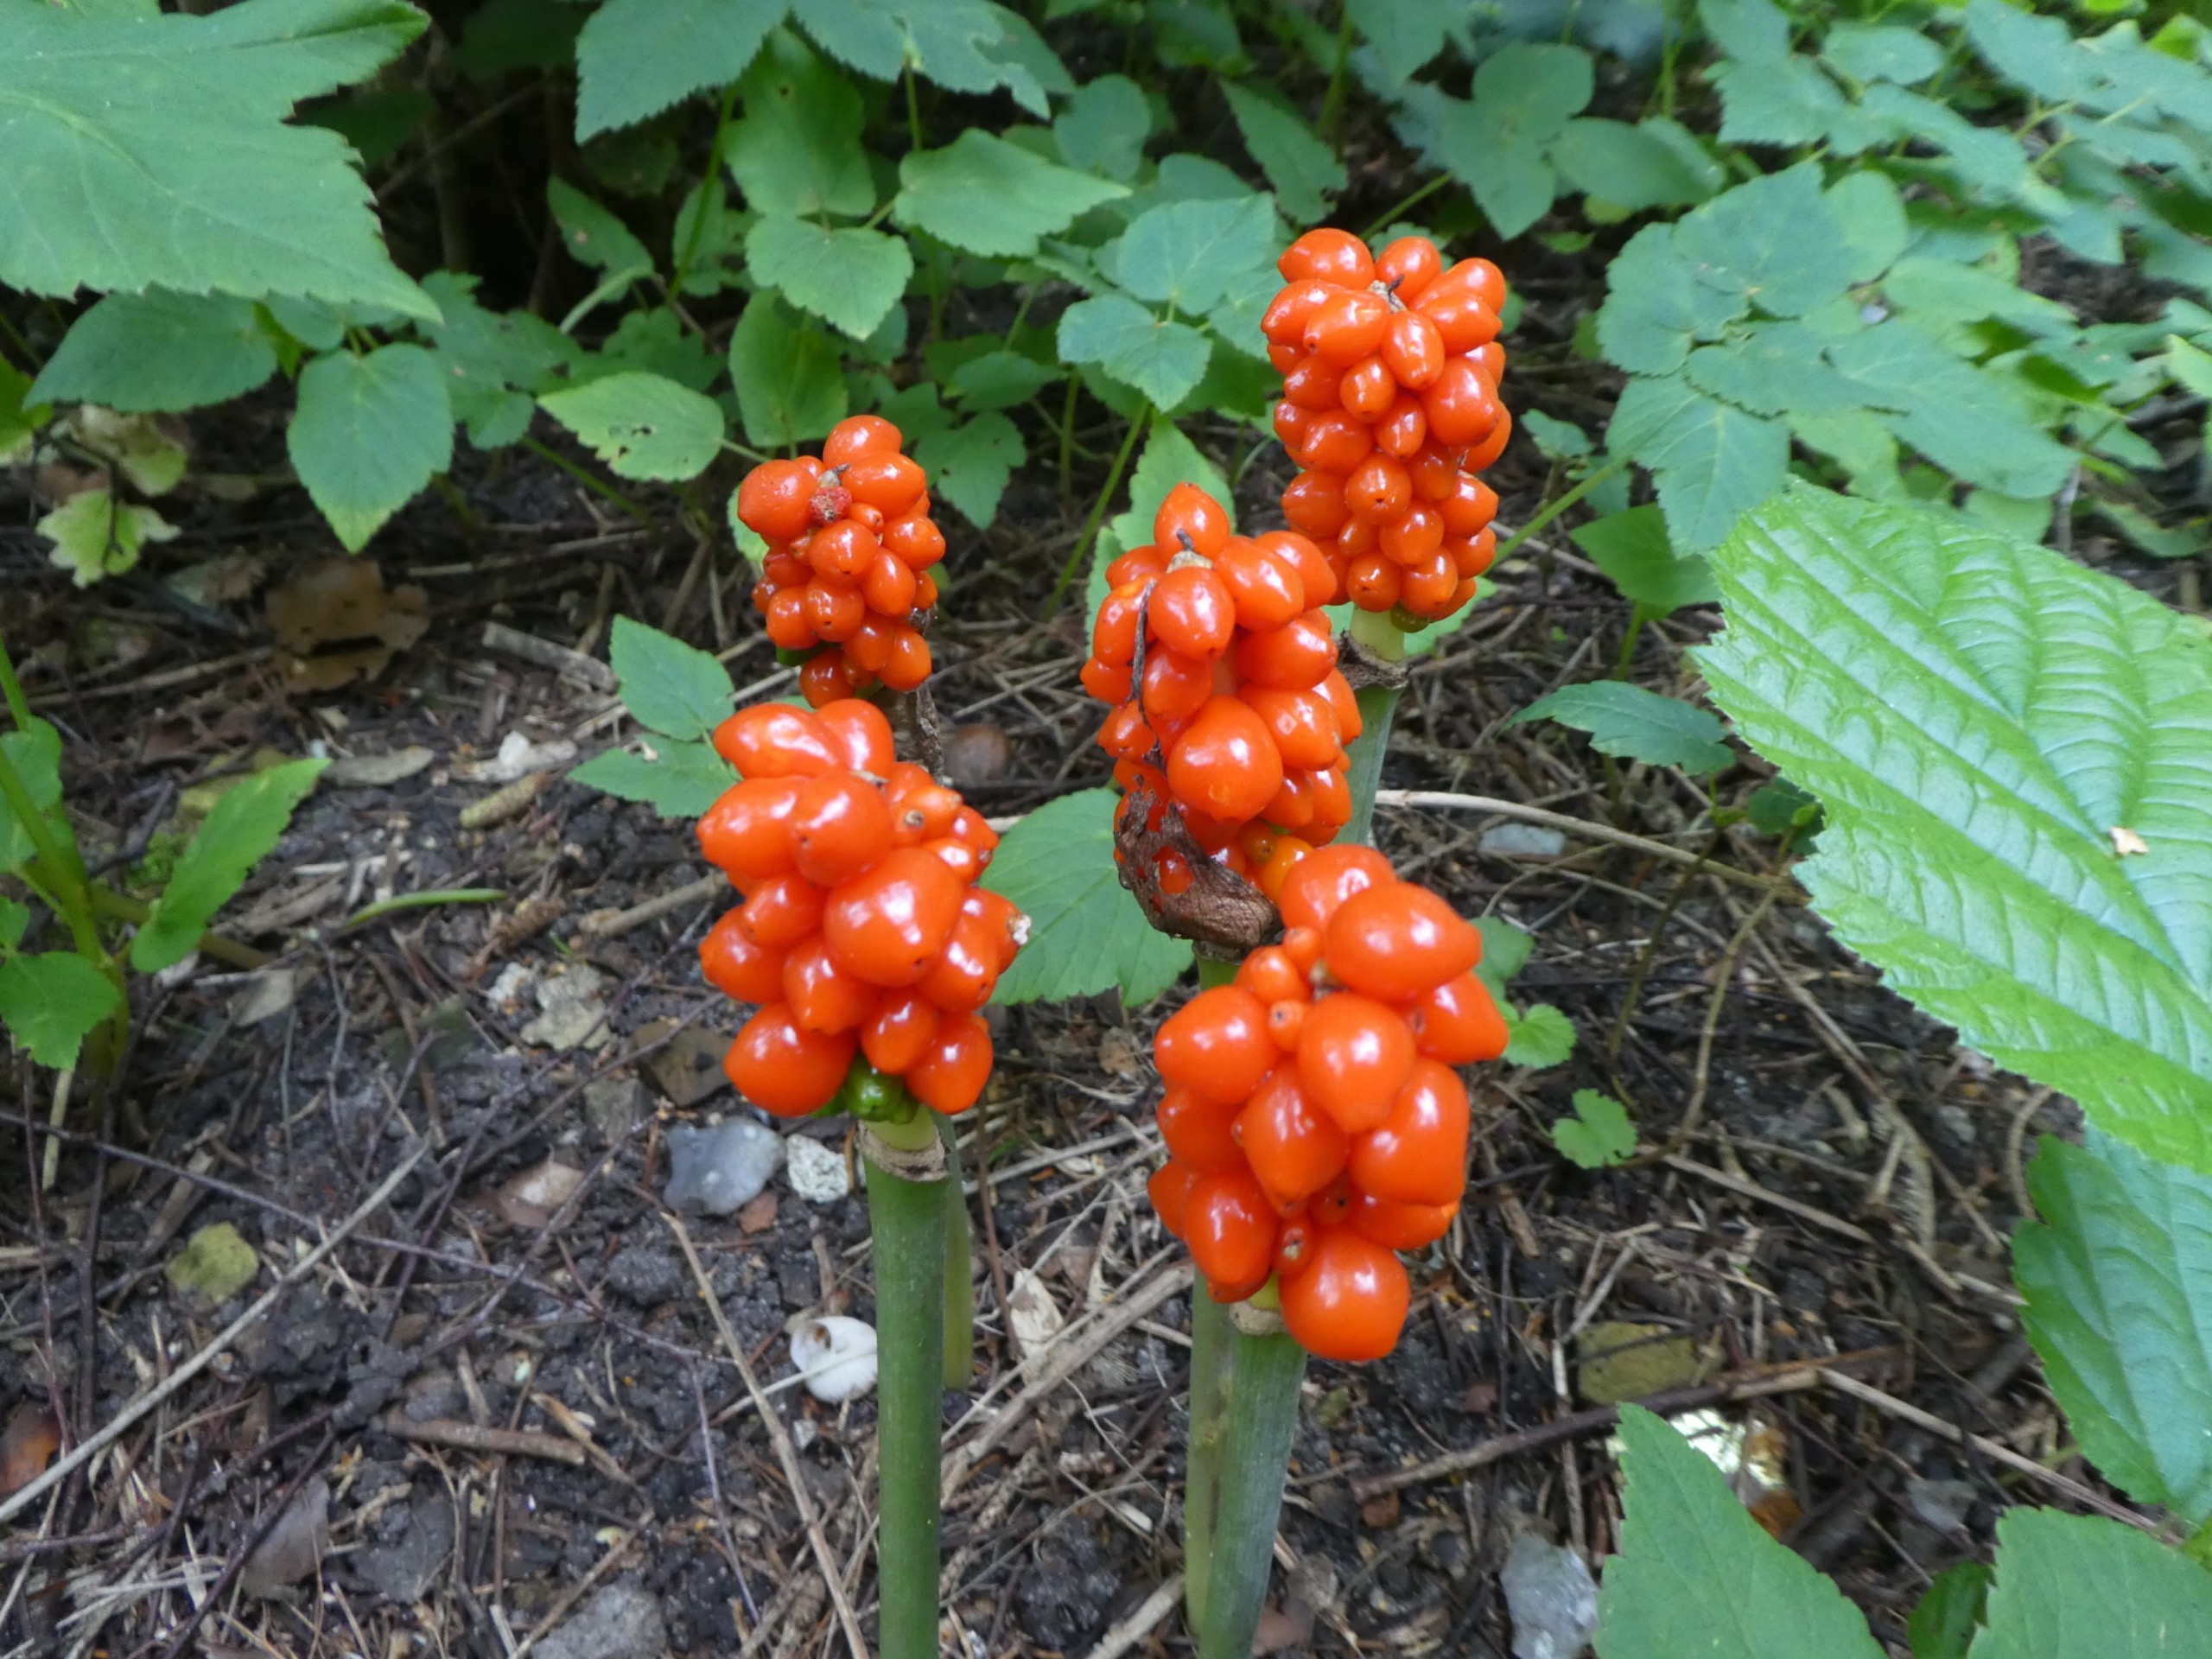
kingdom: Plantae
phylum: Tracheophyta
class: Liliopsida
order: Alismatales
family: Araceae
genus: Arum
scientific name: Arum
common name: Arumslægten
